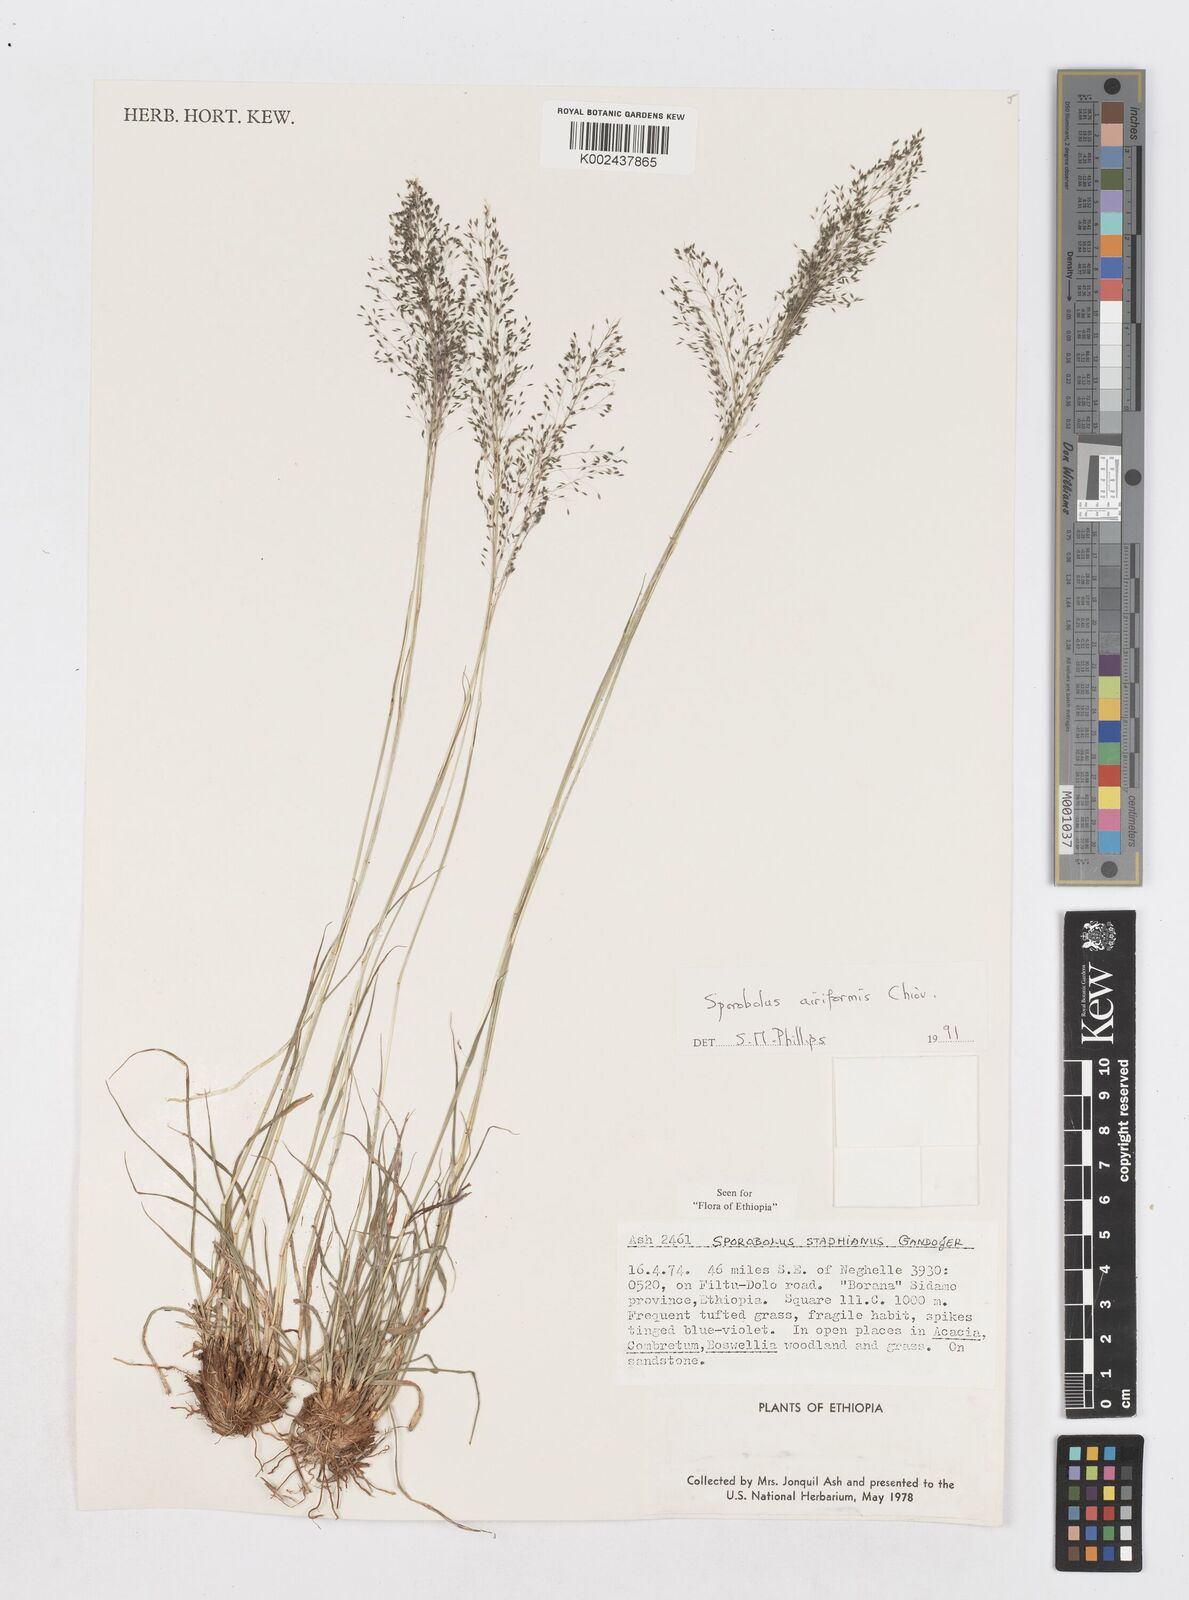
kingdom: Plantae
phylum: Tracheophyta
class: Liliopsida
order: Poales
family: Poaceae
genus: Sporobolus
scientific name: Sporobolus airiformis
